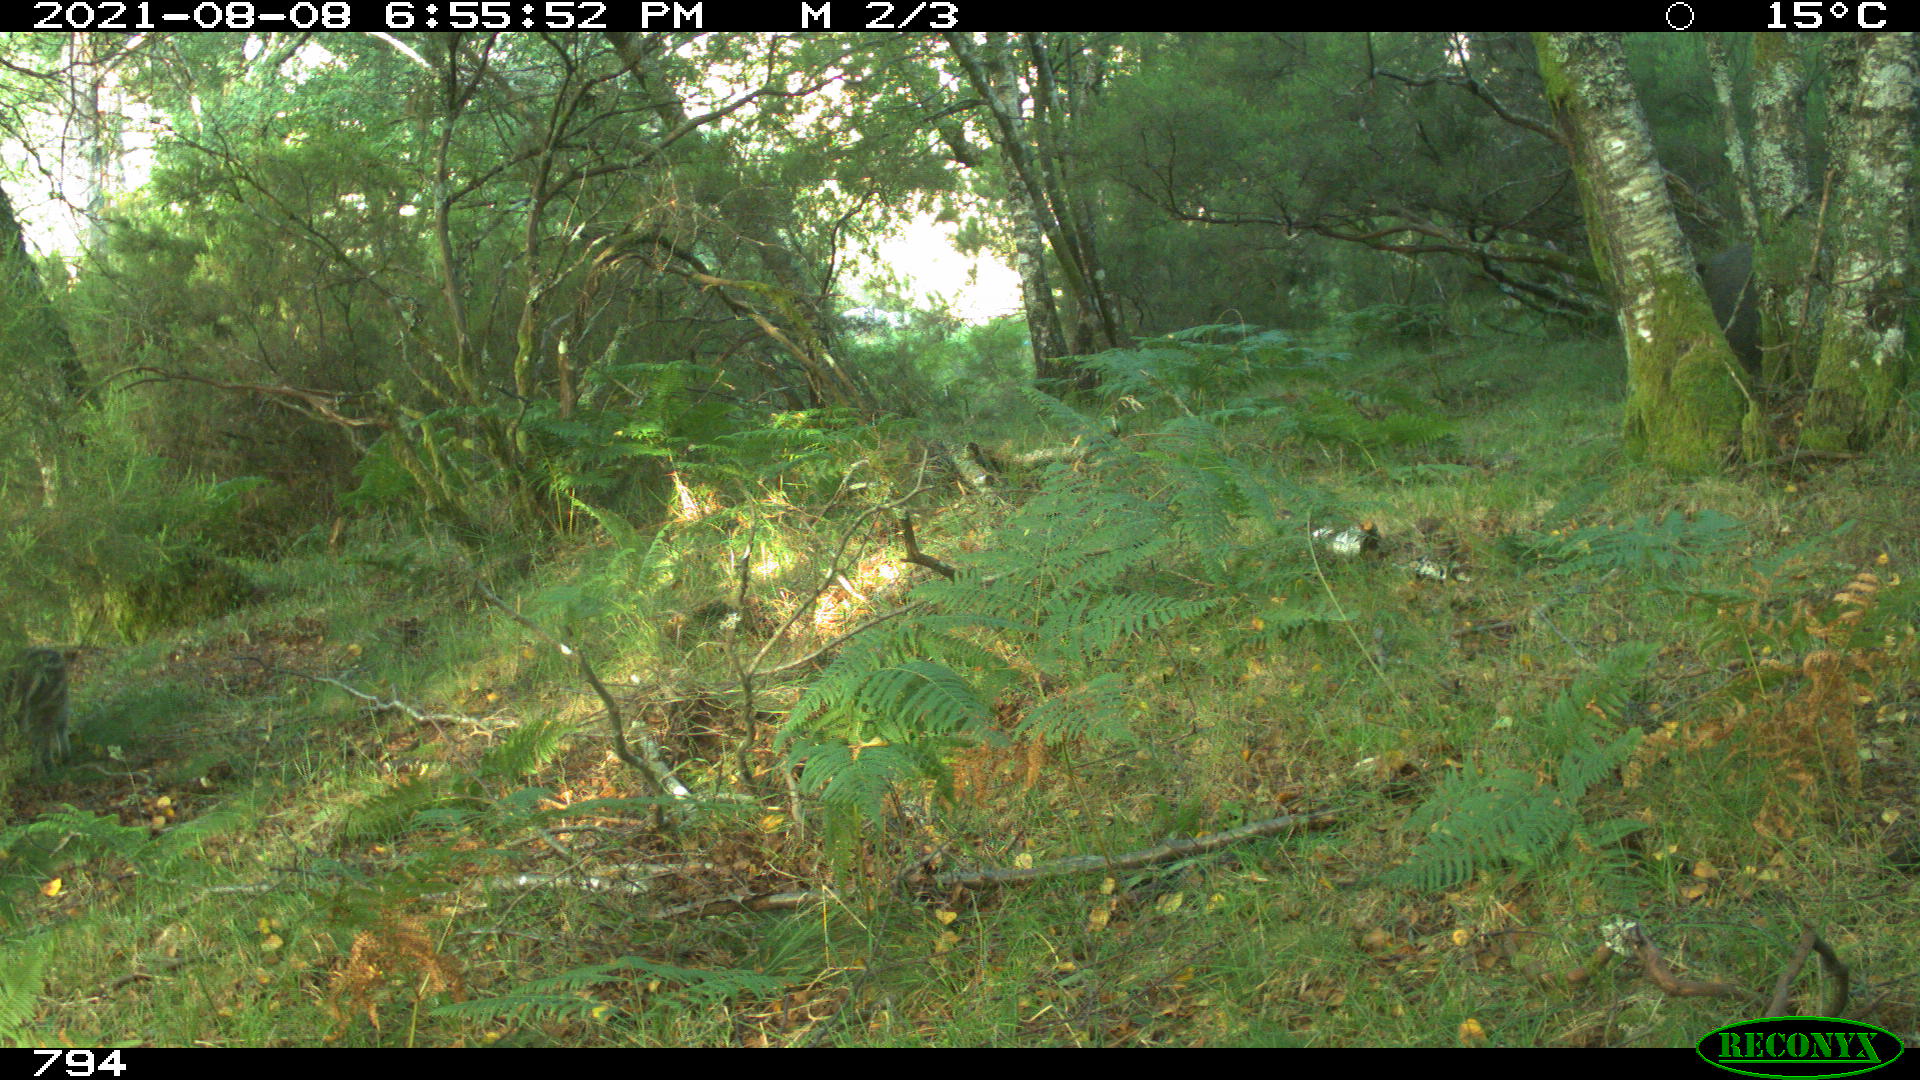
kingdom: Animalia
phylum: Chordata
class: Mammalia
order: Artiodactyla
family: Suidae
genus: Sus
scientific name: Sus scrofa
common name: Wild boar
